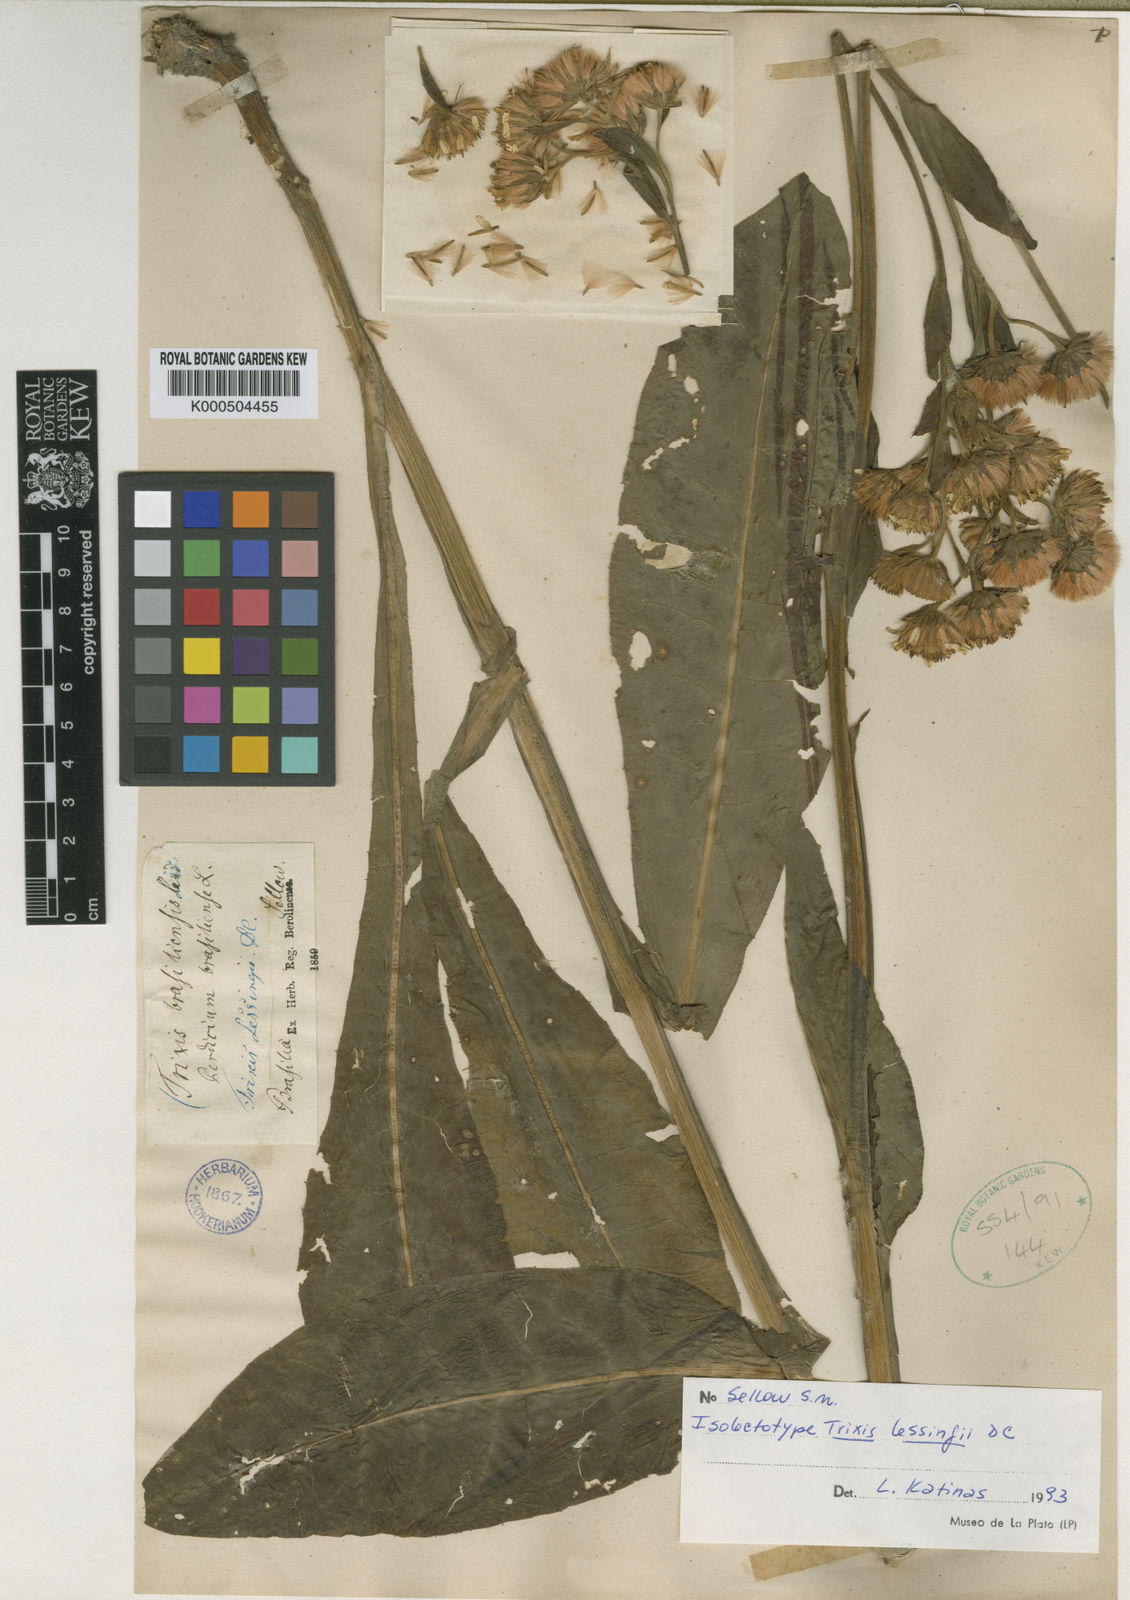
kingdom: Plantae
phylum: Tracheophyta
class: Magnoliopsida
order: Asterales
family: Asteraceae
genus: Trixis
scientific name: Trixis lessingii
